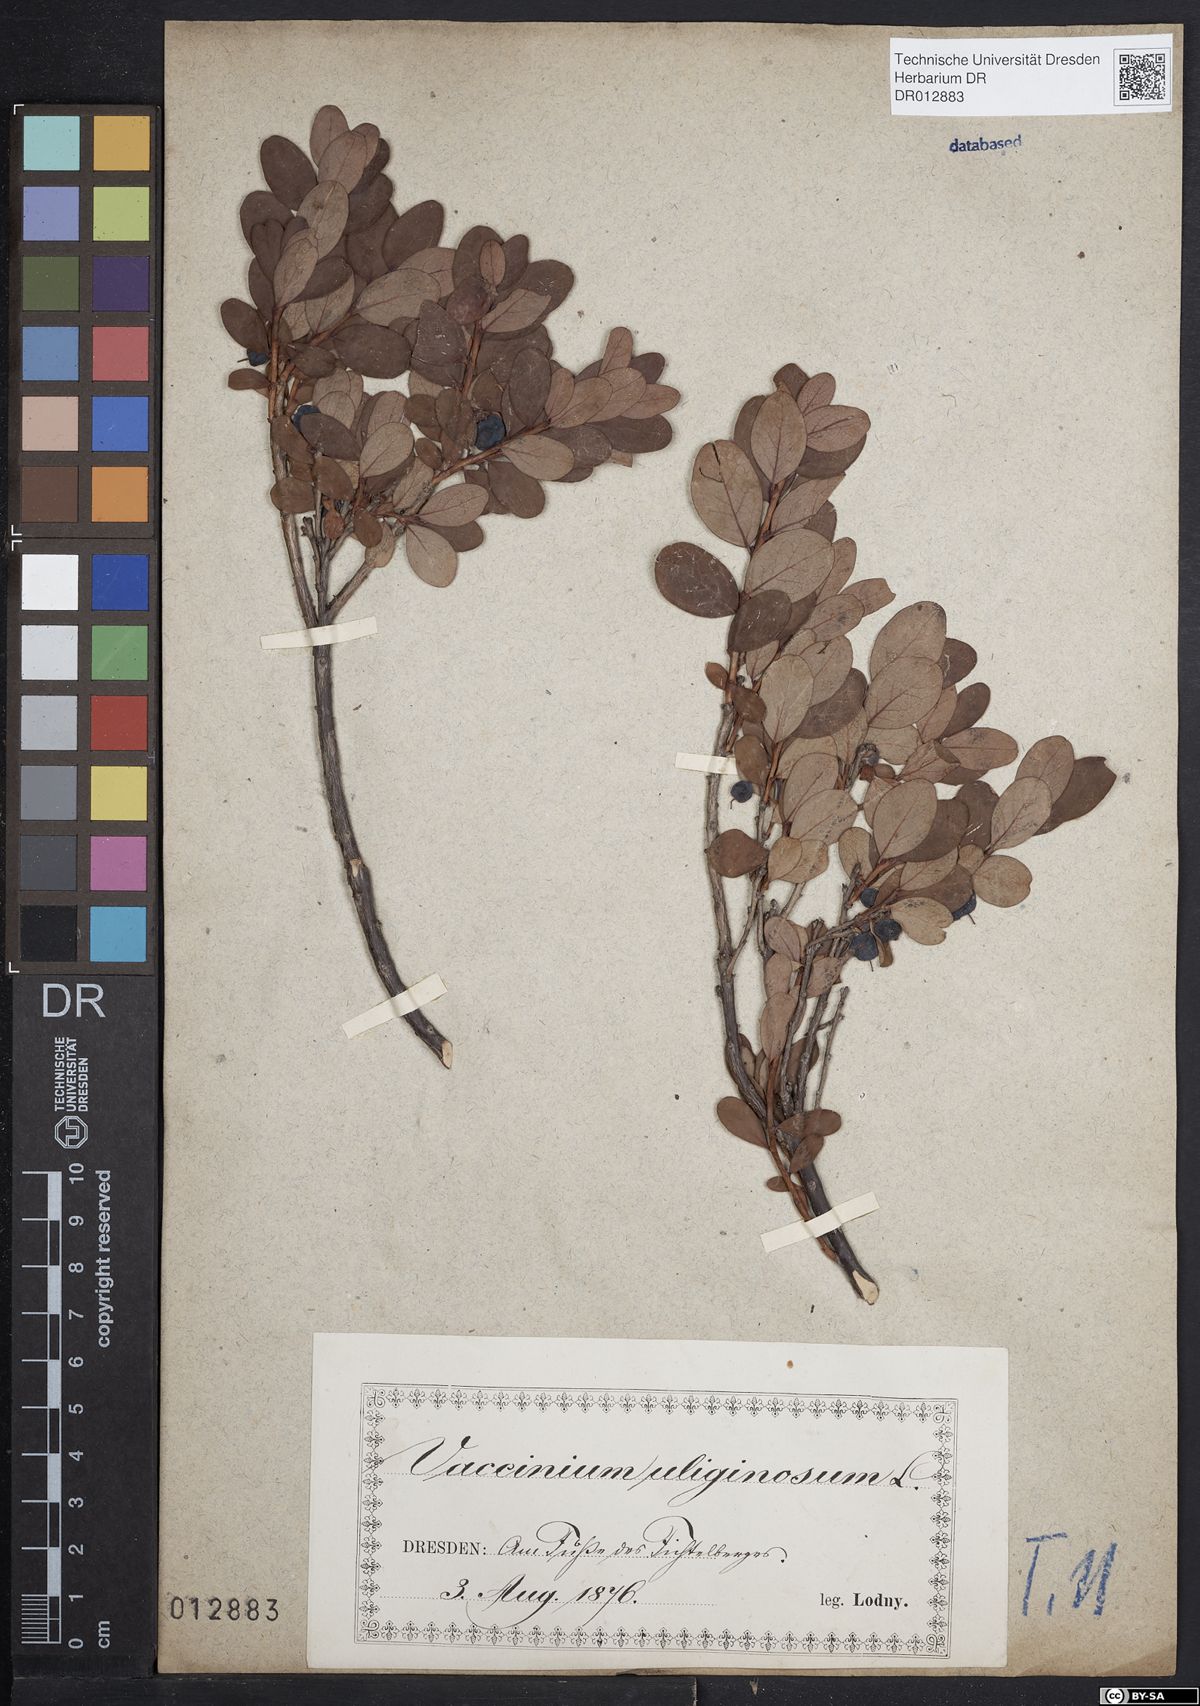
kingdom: Plantae
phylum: Tracheophyta
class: Magnoliopsida
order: Ericales
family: Ericaceae
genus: Vaccinium
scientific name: Vaccinium uliginosum
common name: Bog bilberry
